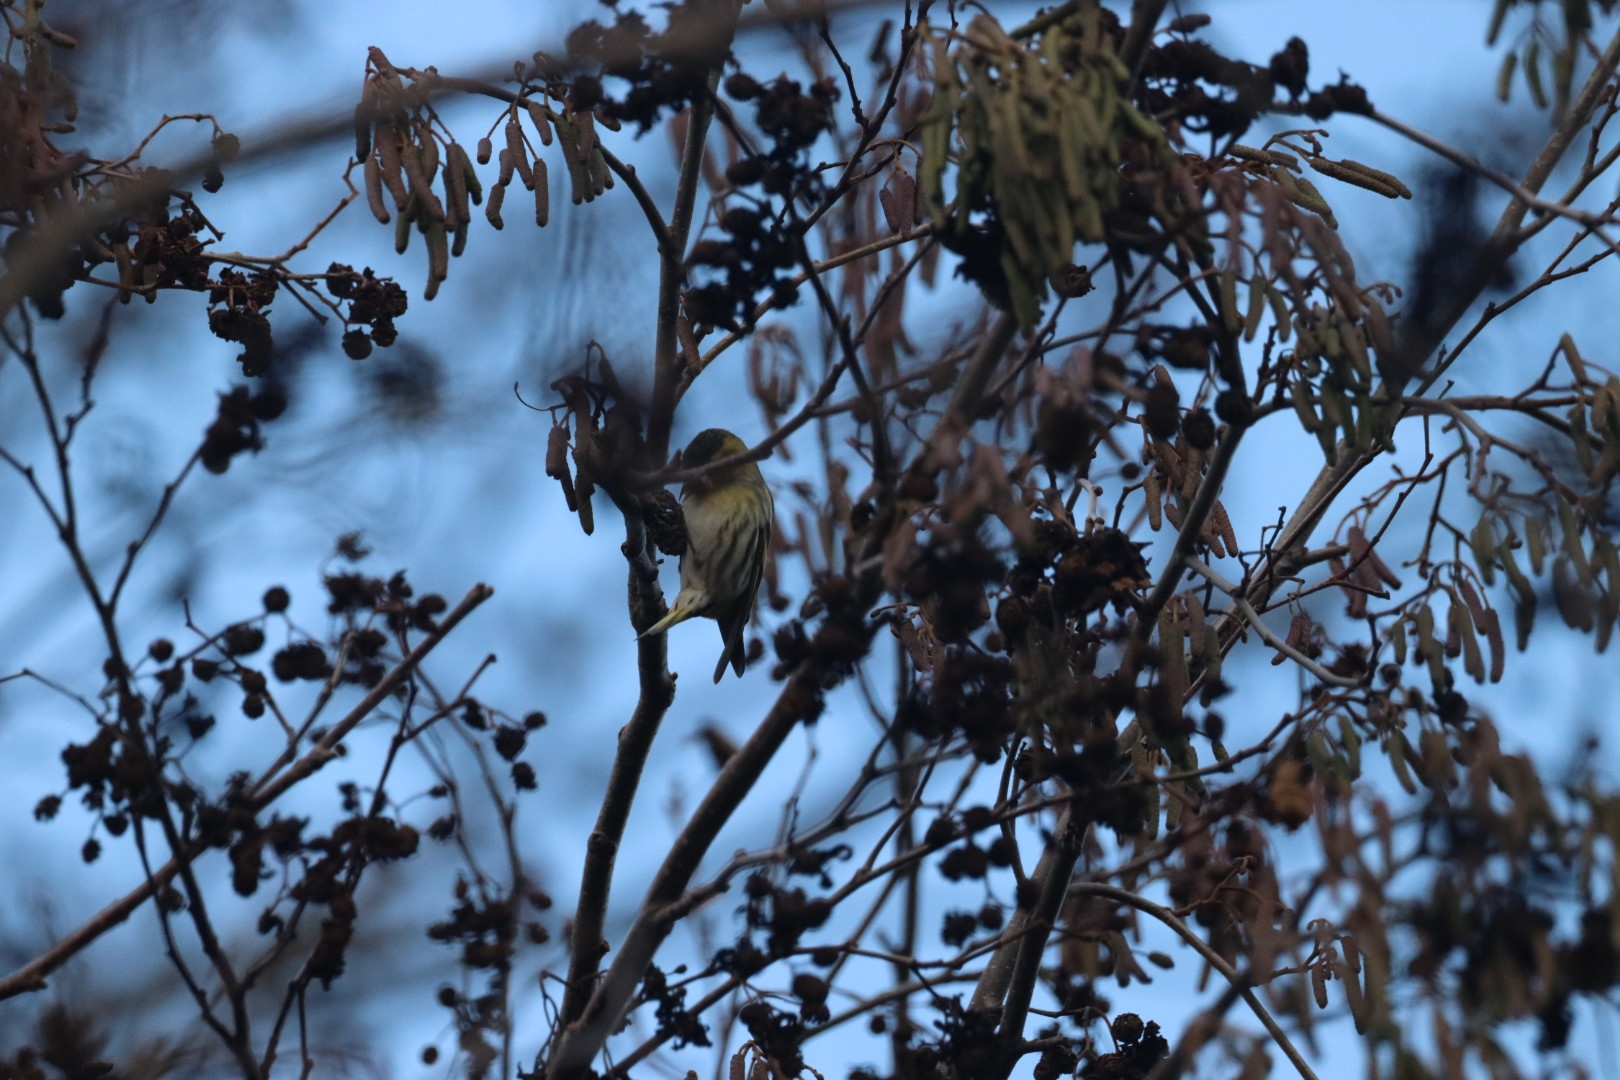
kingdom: Animalia
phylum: Chordata
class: Aves
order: Passeriformes
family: Fringillidae
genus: Spinus
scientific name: Spinus spinus
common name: Grønsisken
